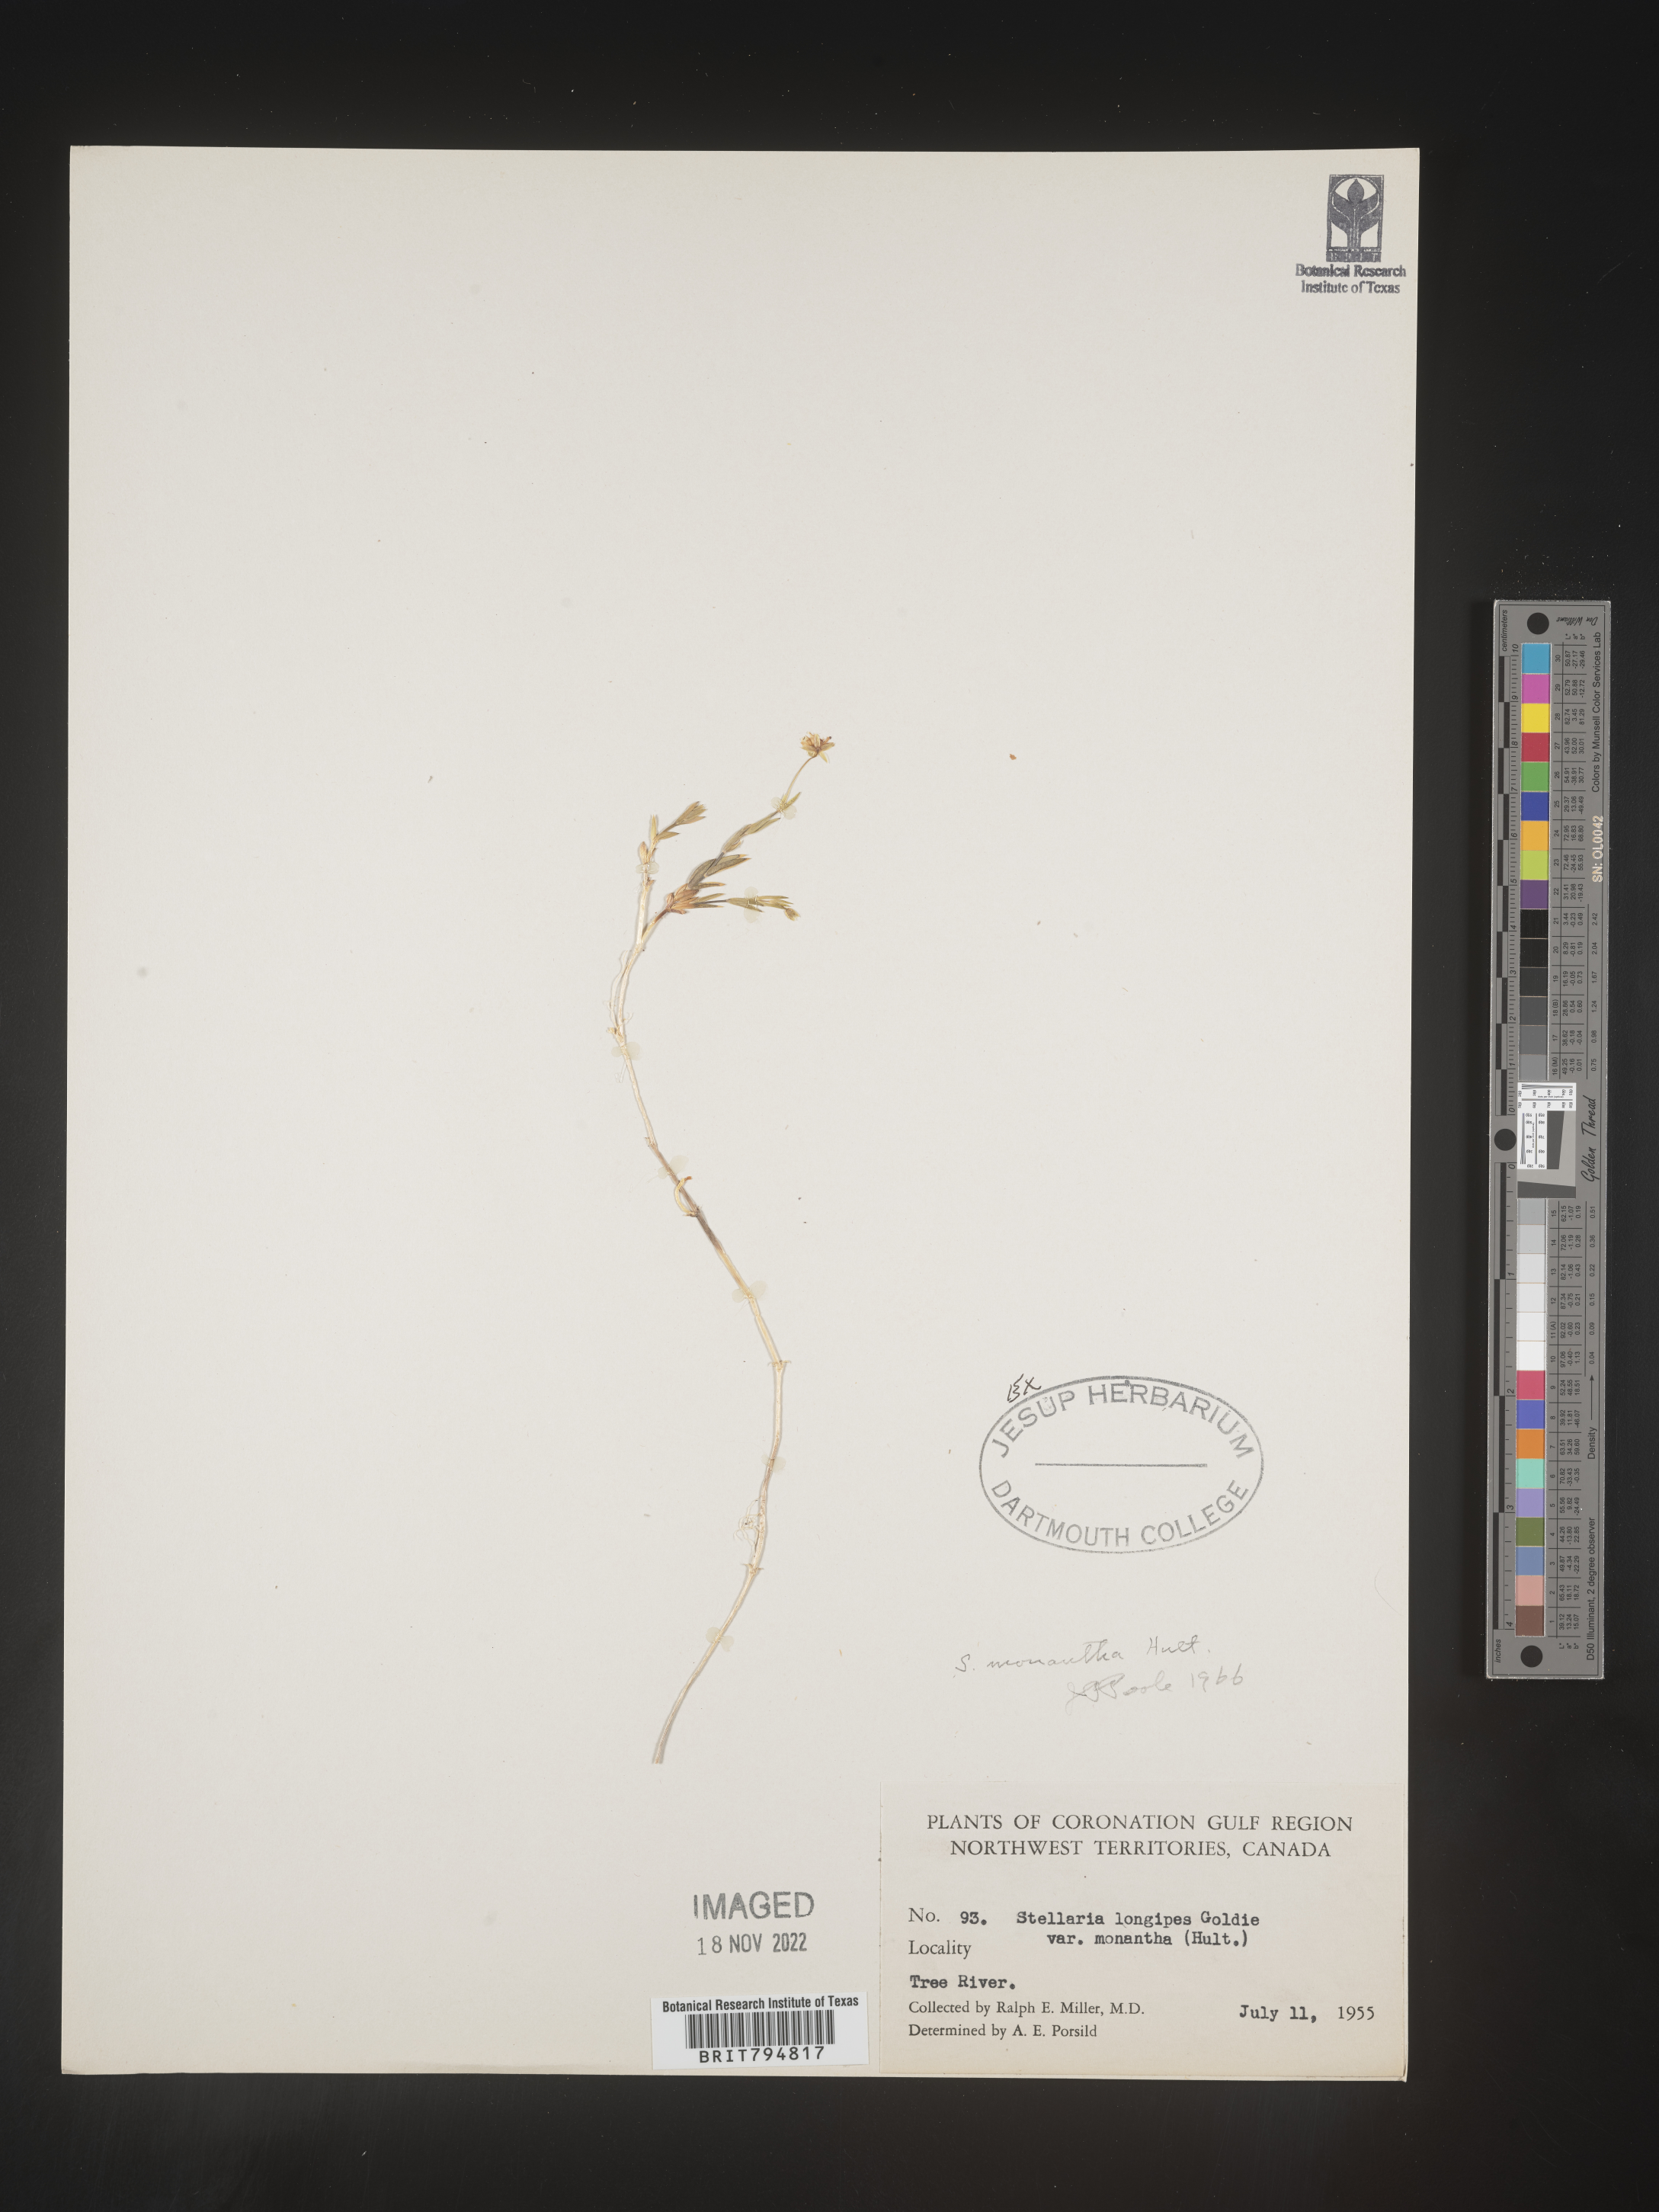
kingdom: Plantae
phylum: Tracheophyta
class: Magnoliopsida
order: Caryophyllales
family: Caryophyllaceae
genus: Stellaria
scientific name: Stellaria longipes
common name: Goldie's starwort
